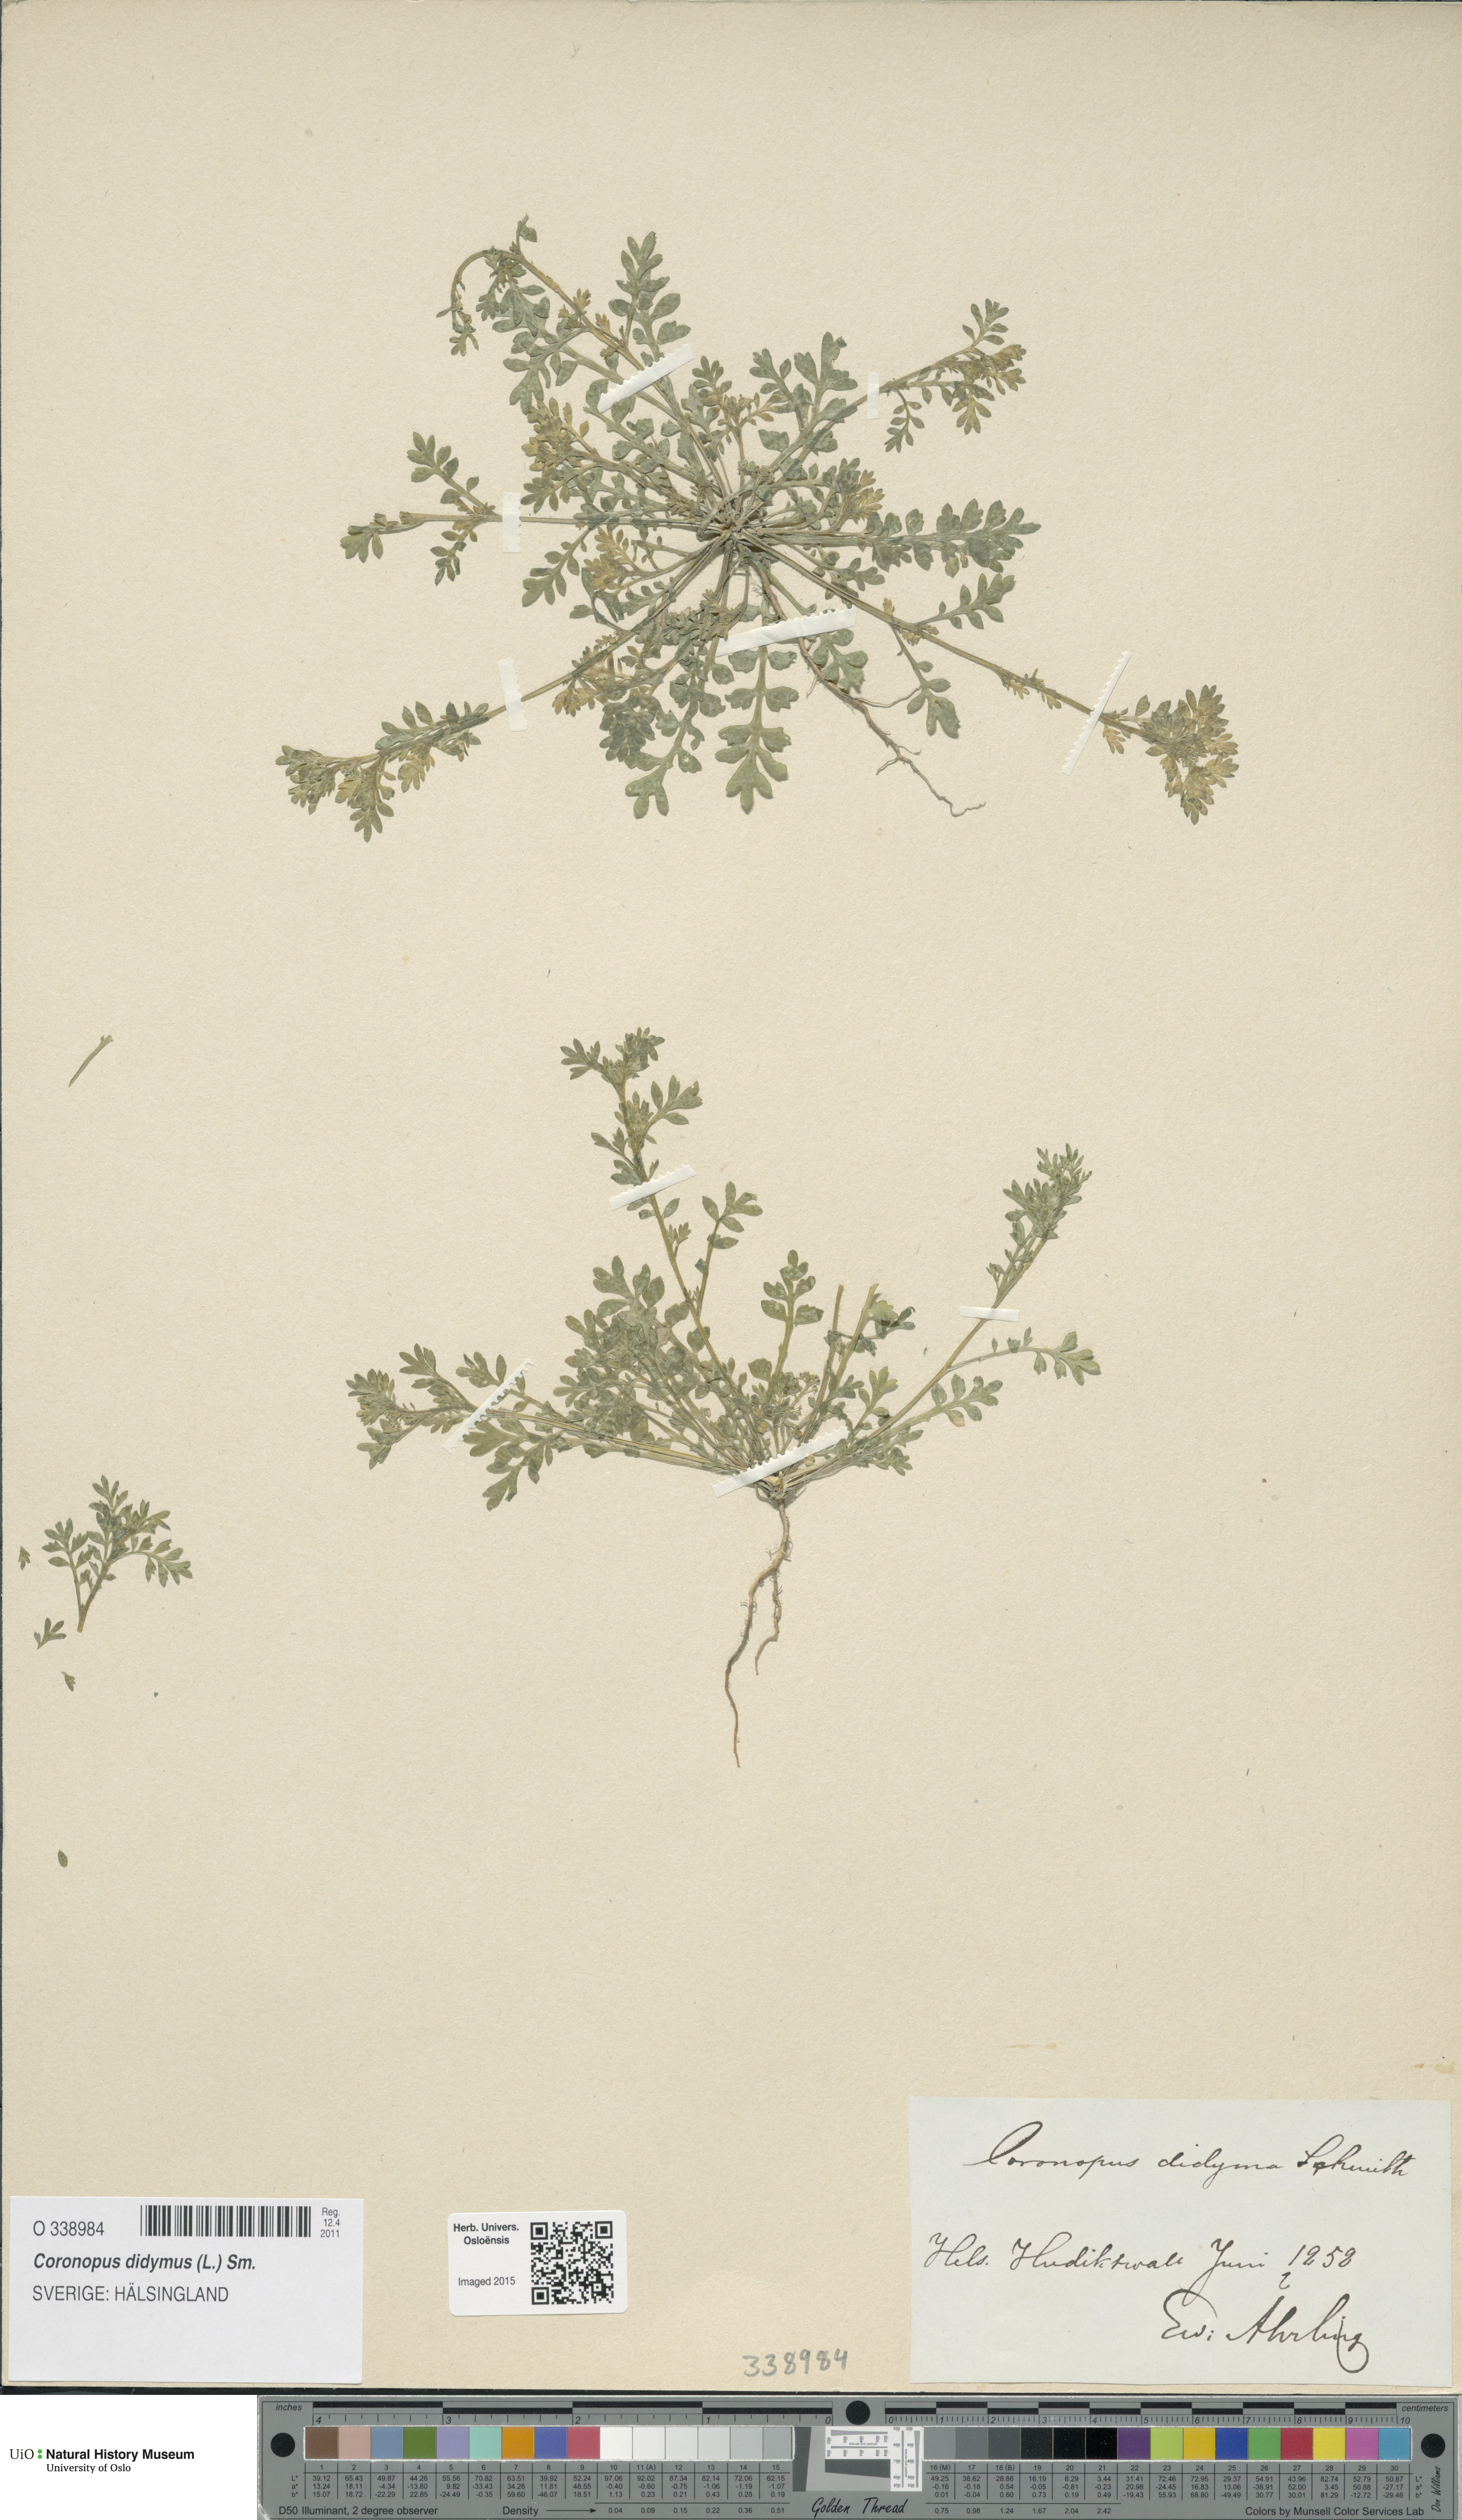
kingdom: Plantae
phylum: Tracheophyta
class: Magnoliopsida
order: Brassicales
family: Brassicaceae
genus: Lepidium
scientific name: Lepidium didymum
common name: Lesser swinecress
